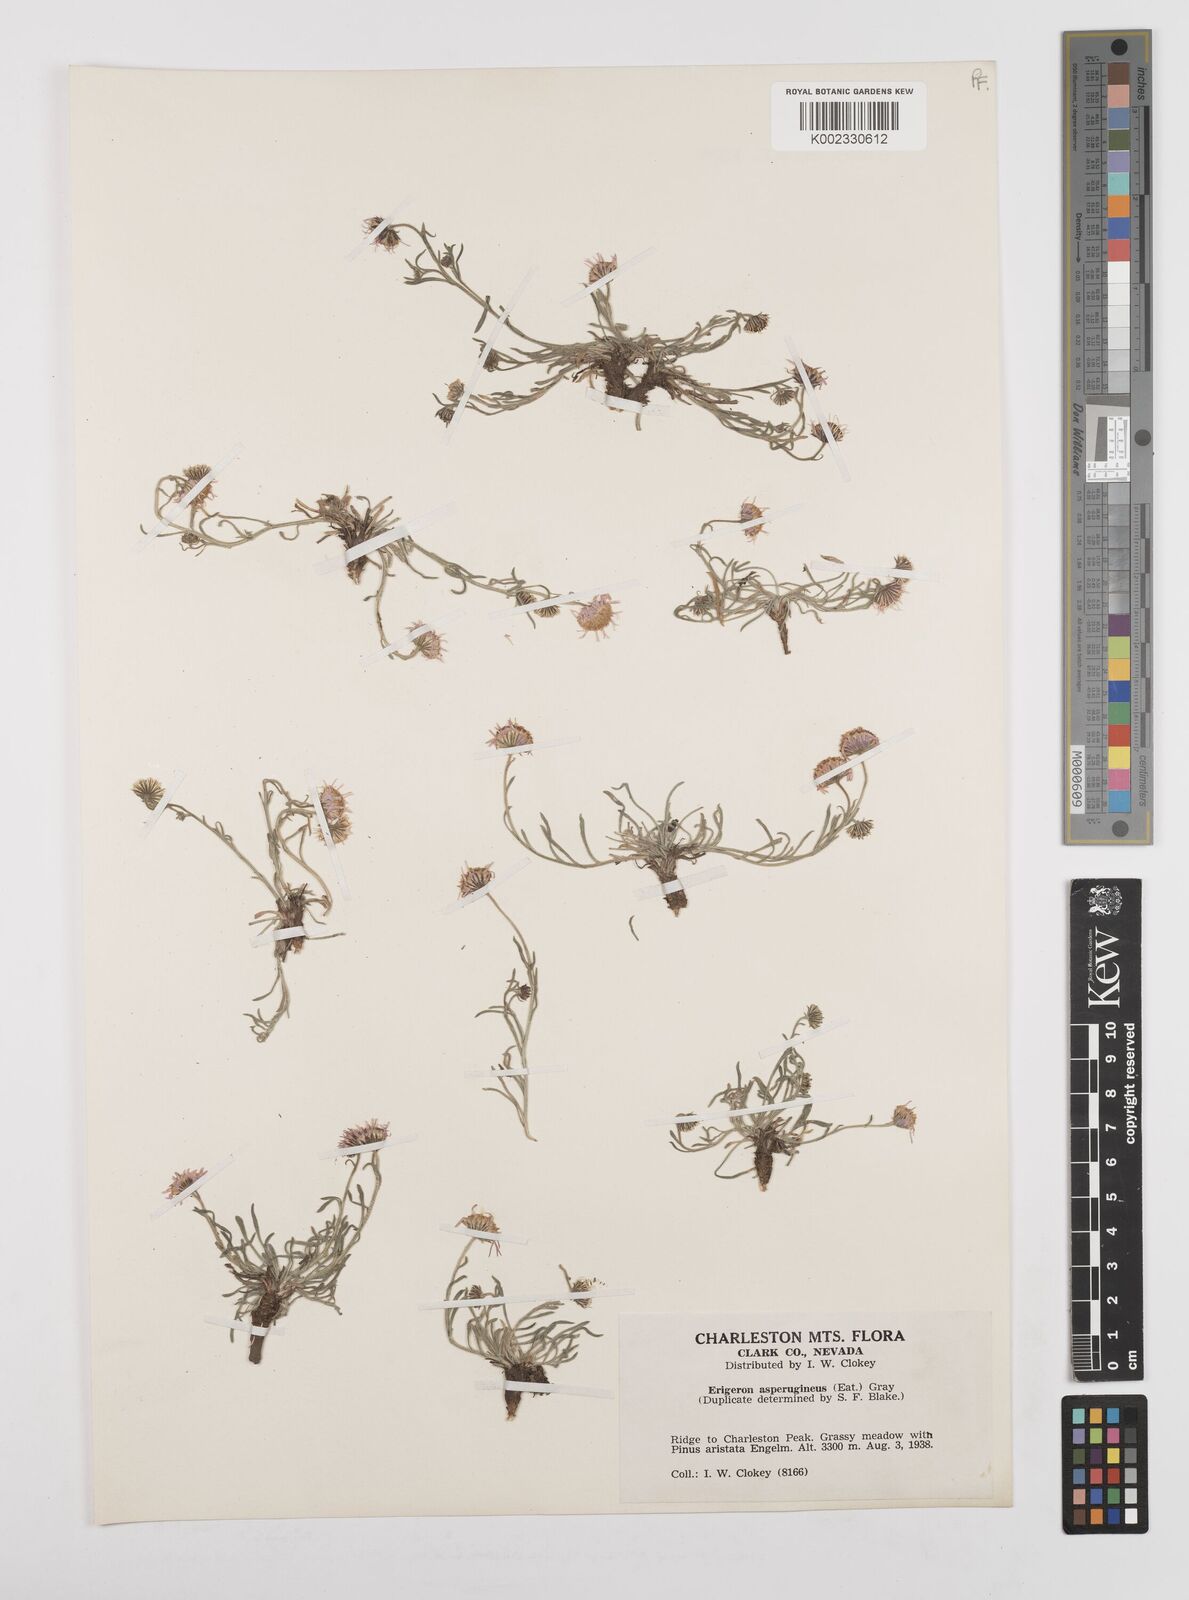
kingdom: Plantae
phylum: Tracheophyta
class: Magnoliopsida
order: Asterales
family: Asteraceae
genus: Erigeron
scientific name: Erigeron asperugineus
